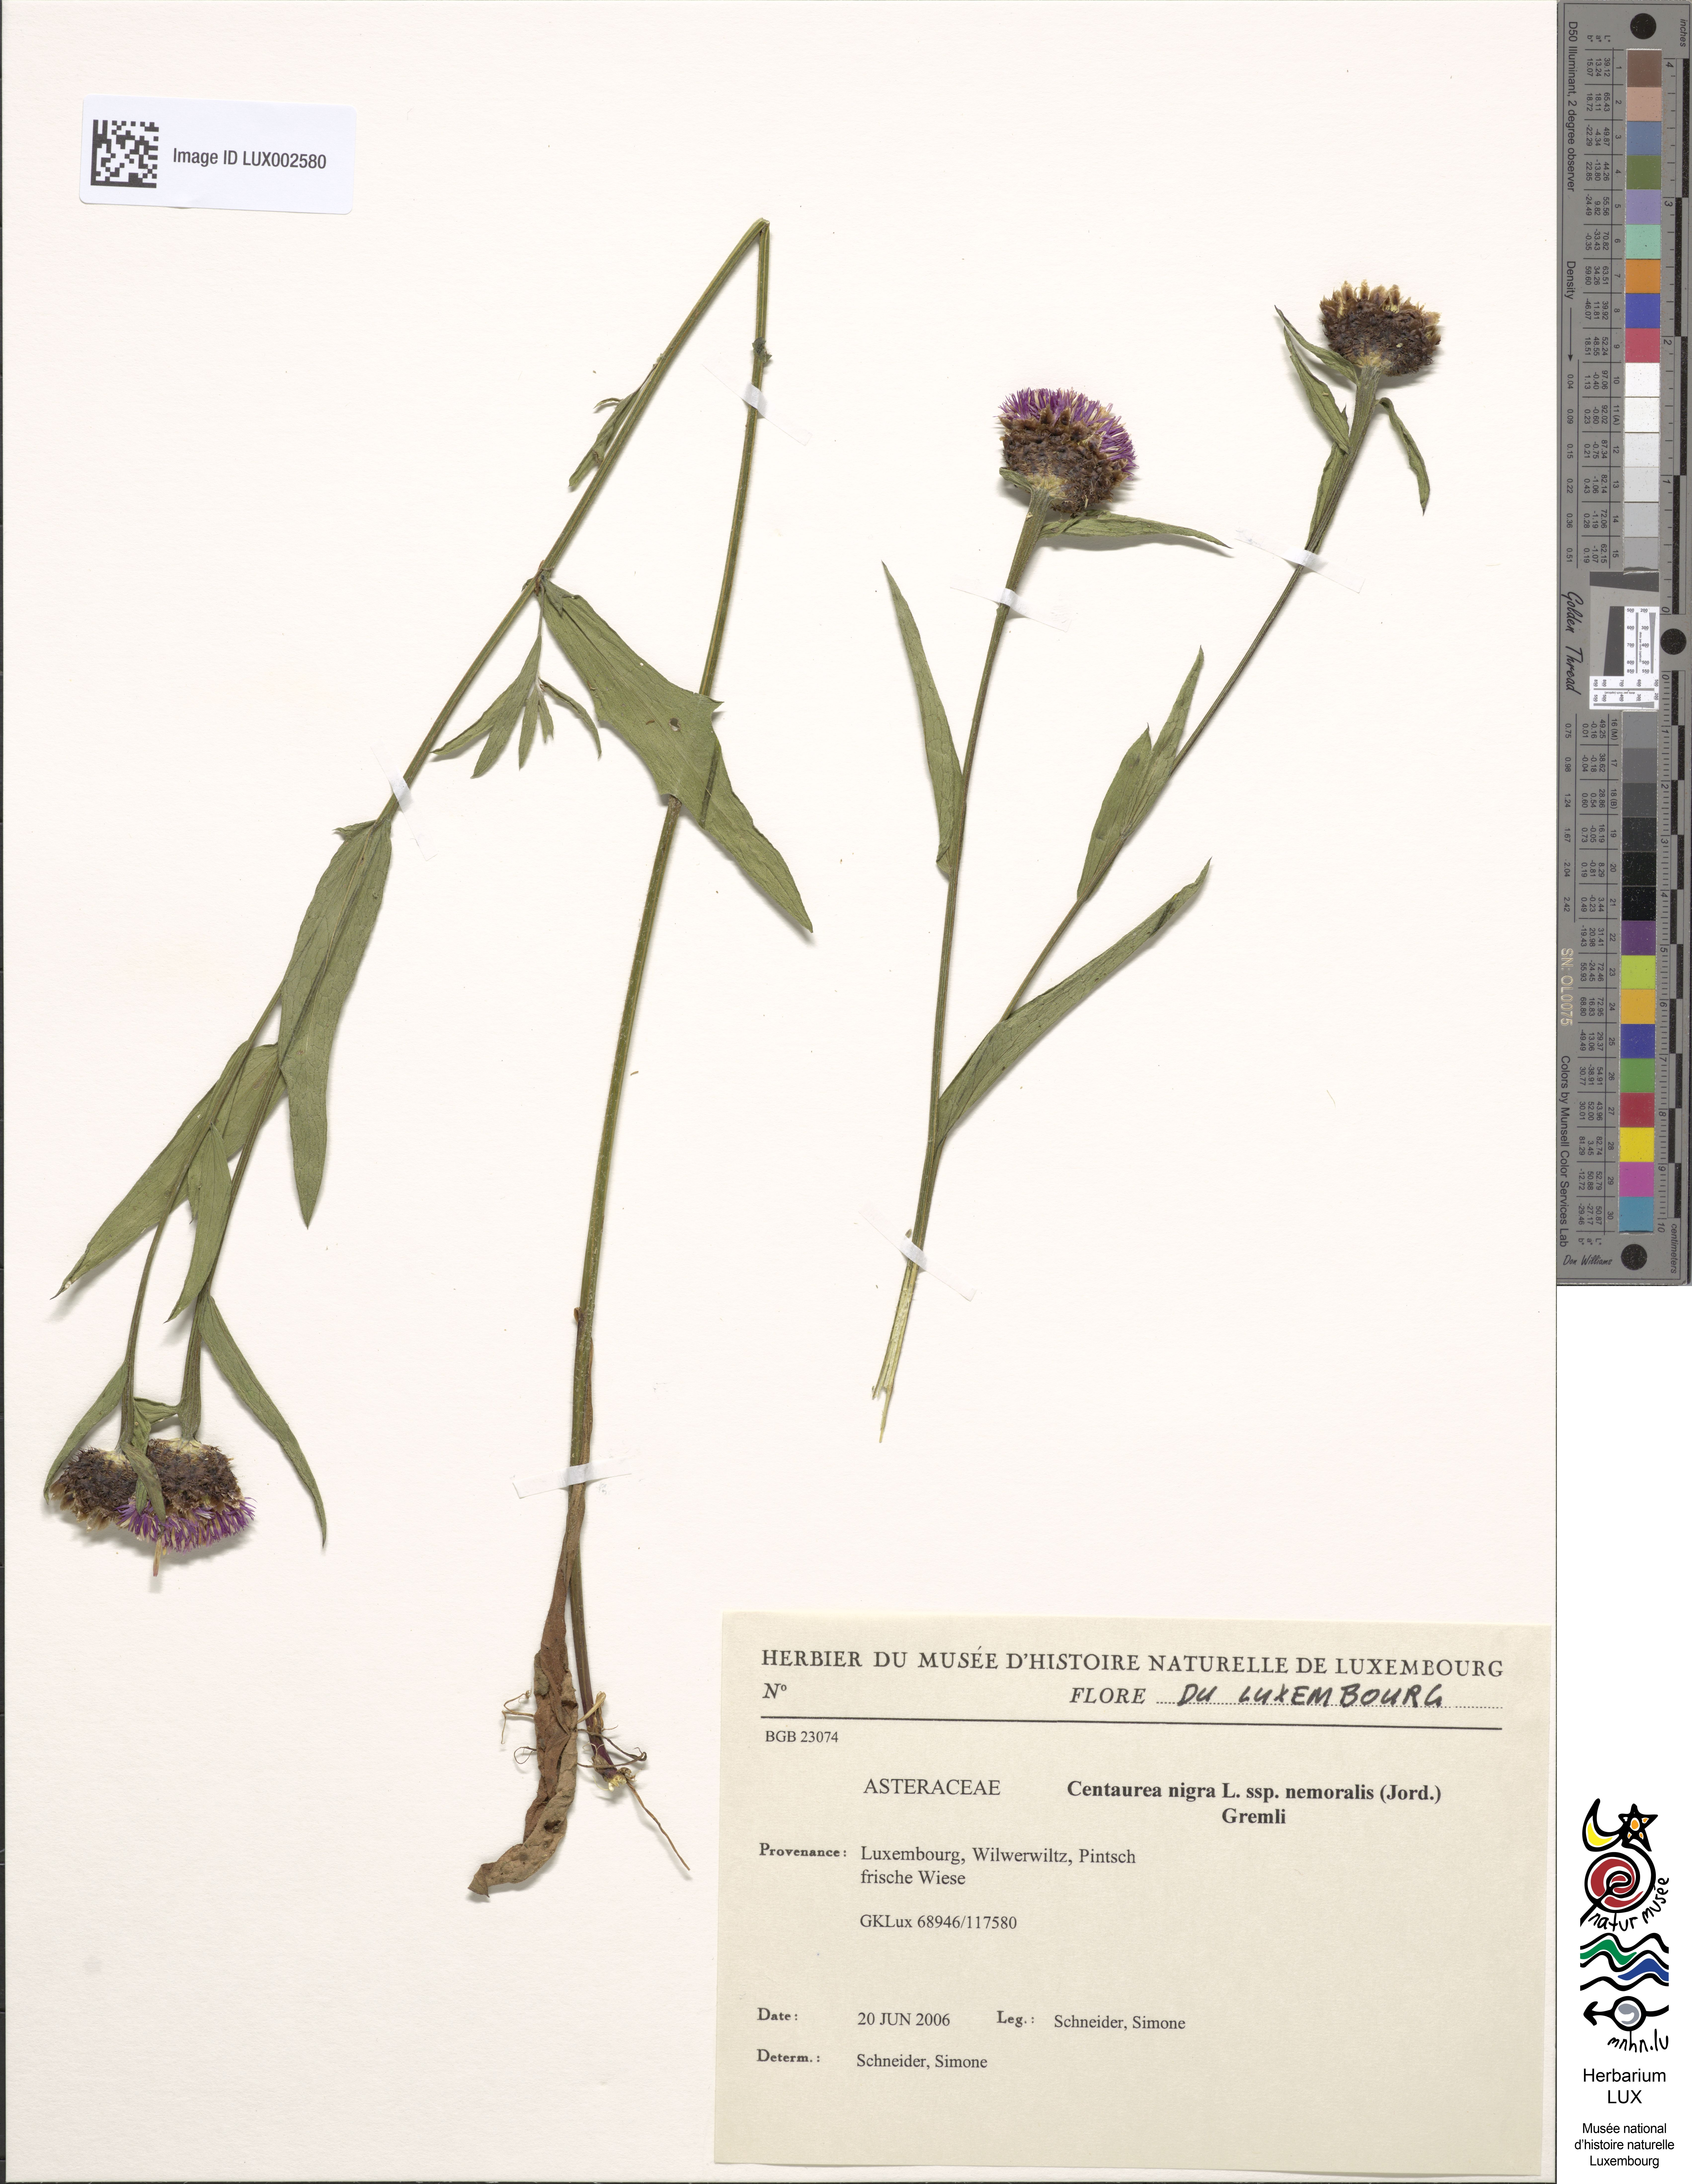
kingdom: Plantae
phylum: Tracheophyta
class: Magnoliopsida
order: Asterales
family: Asteraceae
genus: Centaurea
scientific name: Centaurea nigra
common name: Lesser knapweed
